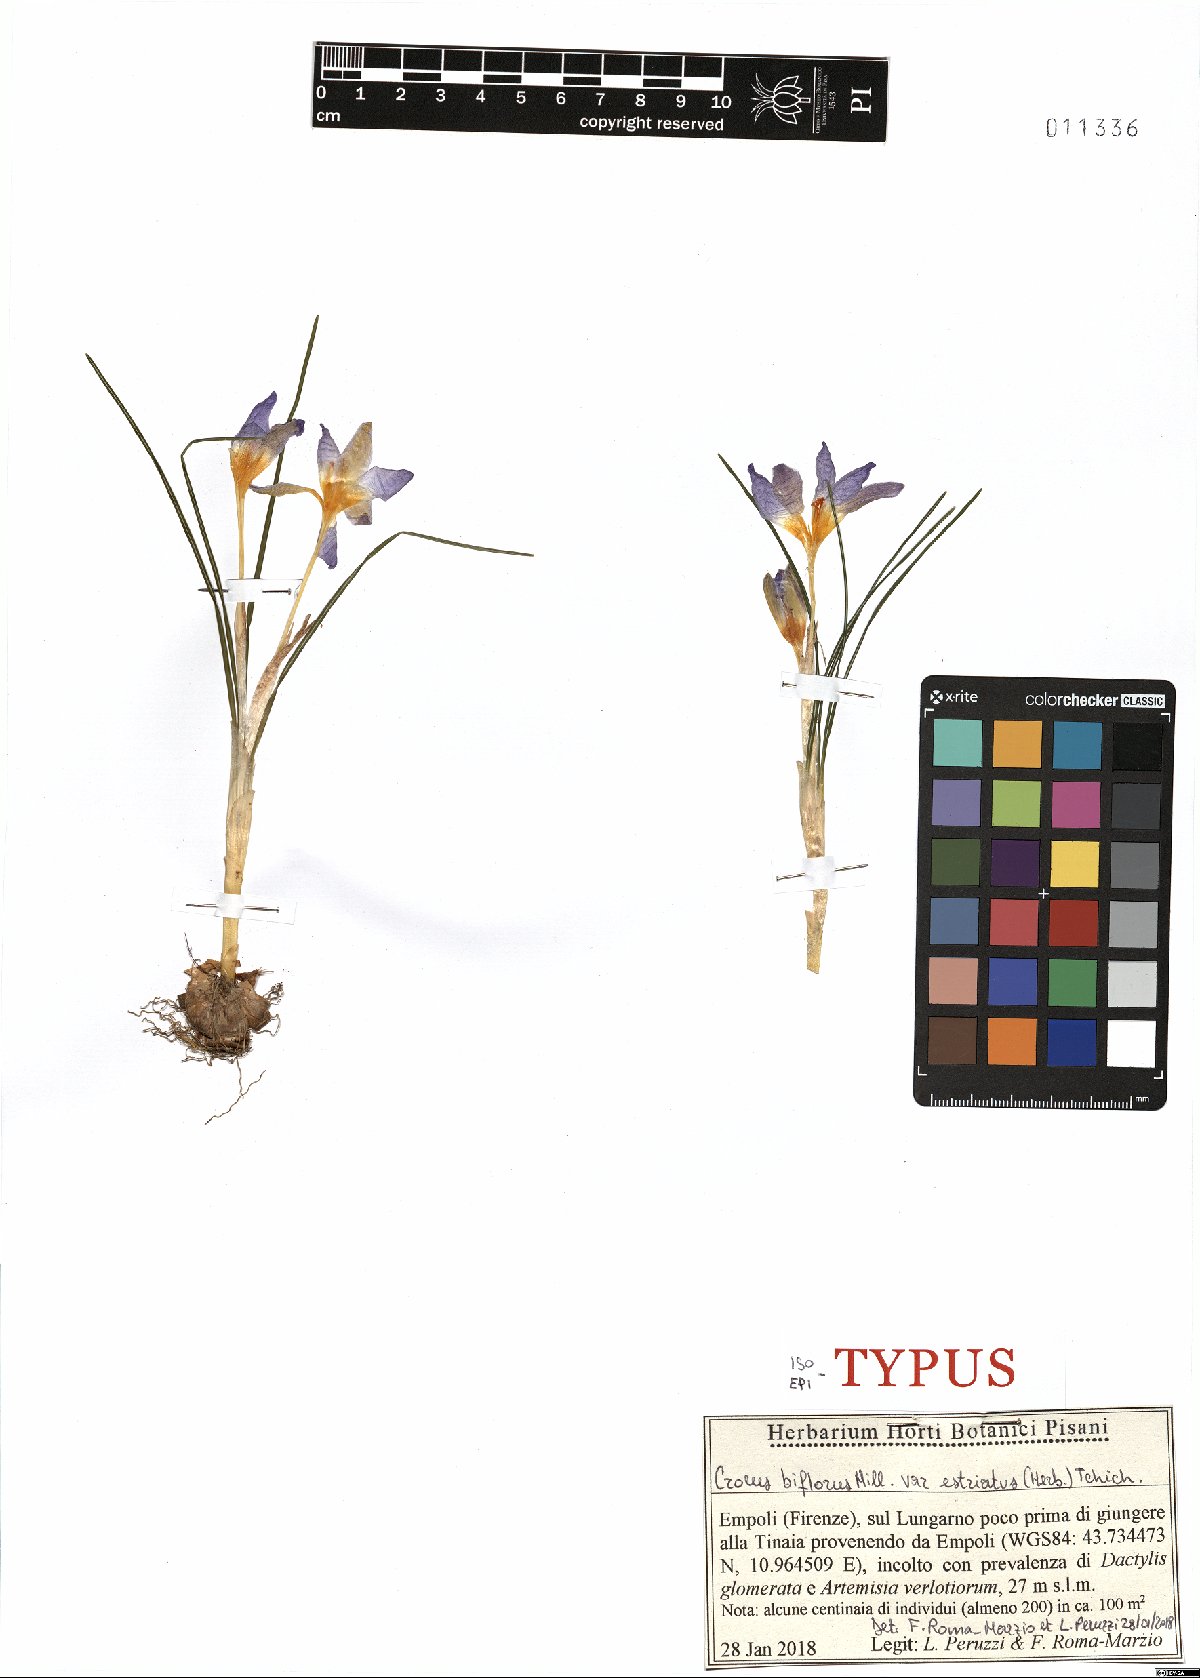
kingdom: Plantae
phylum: Tracheophyta
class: Liliopsida
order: Asparagales
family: Iridaceae
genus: Crocus
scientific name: Crocus biflorus
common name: Silvery crocus
